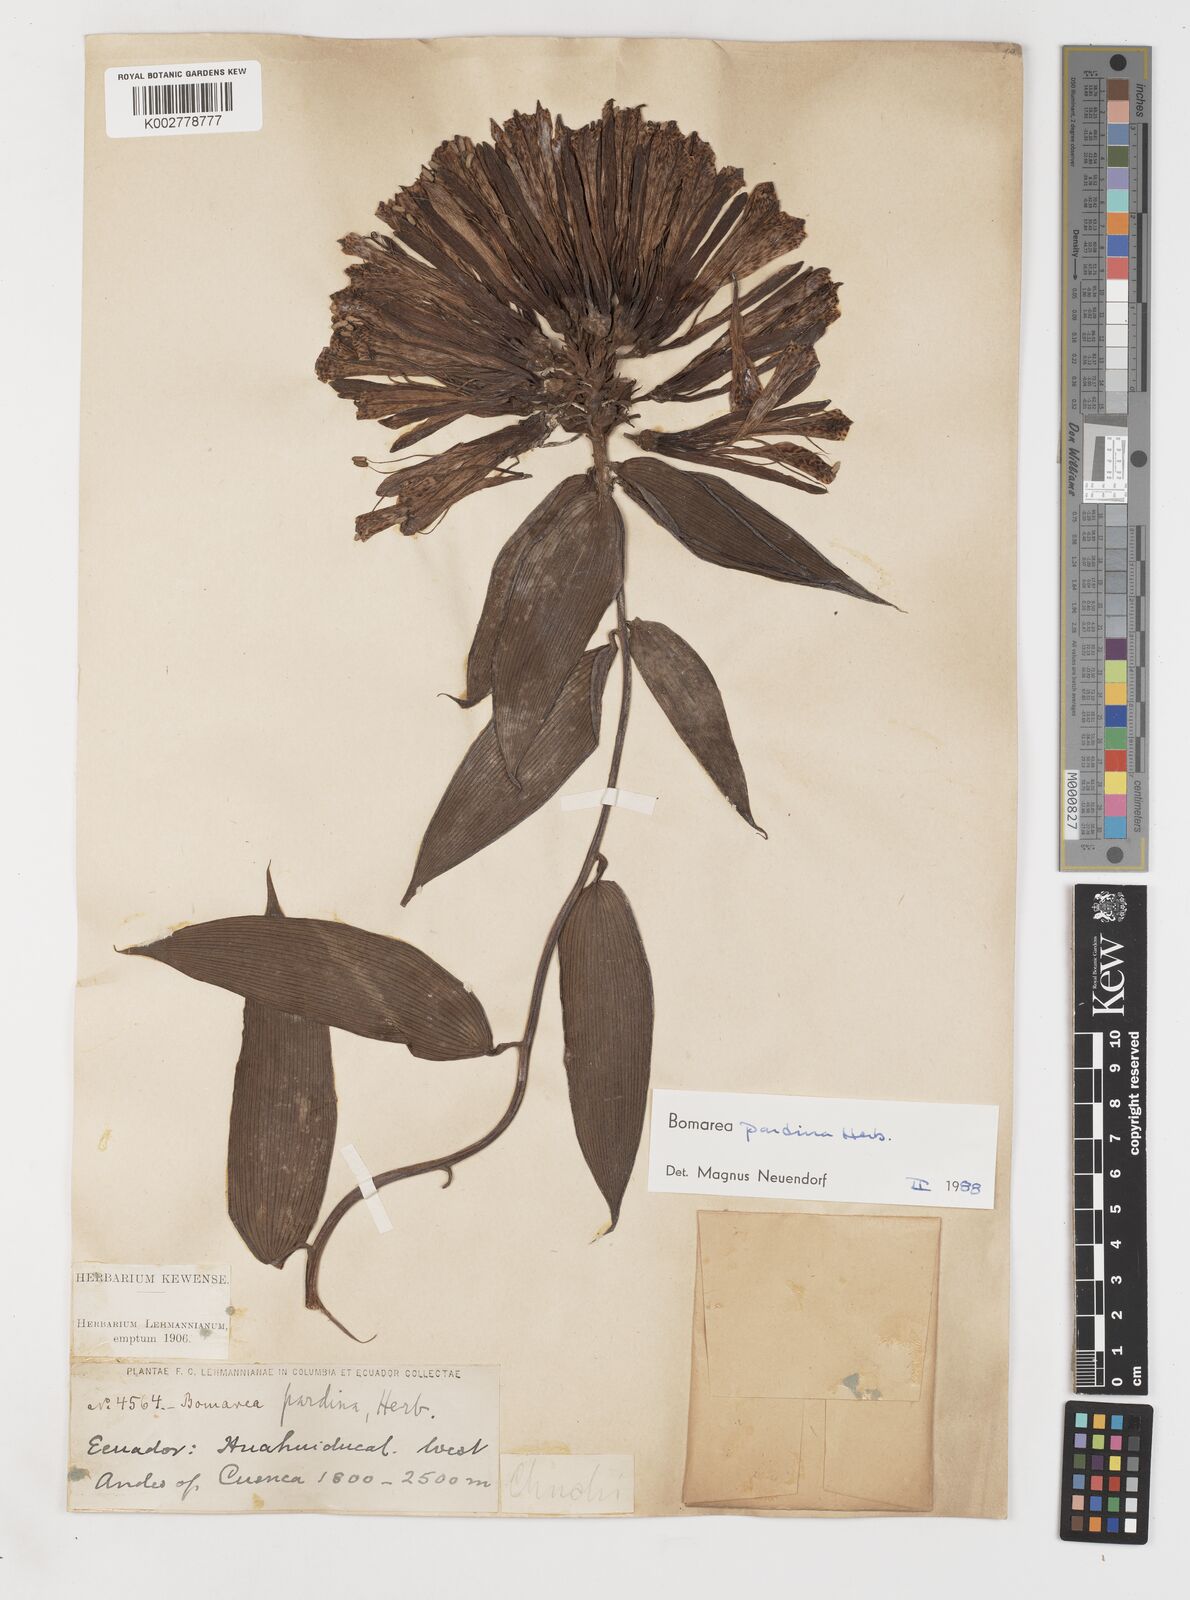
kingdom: Plantae
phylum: Tracheophyta
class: Liliopsida
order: Liliales
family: Alstroemeriaceae
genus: Bomarea
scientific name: Bomarea pardina
